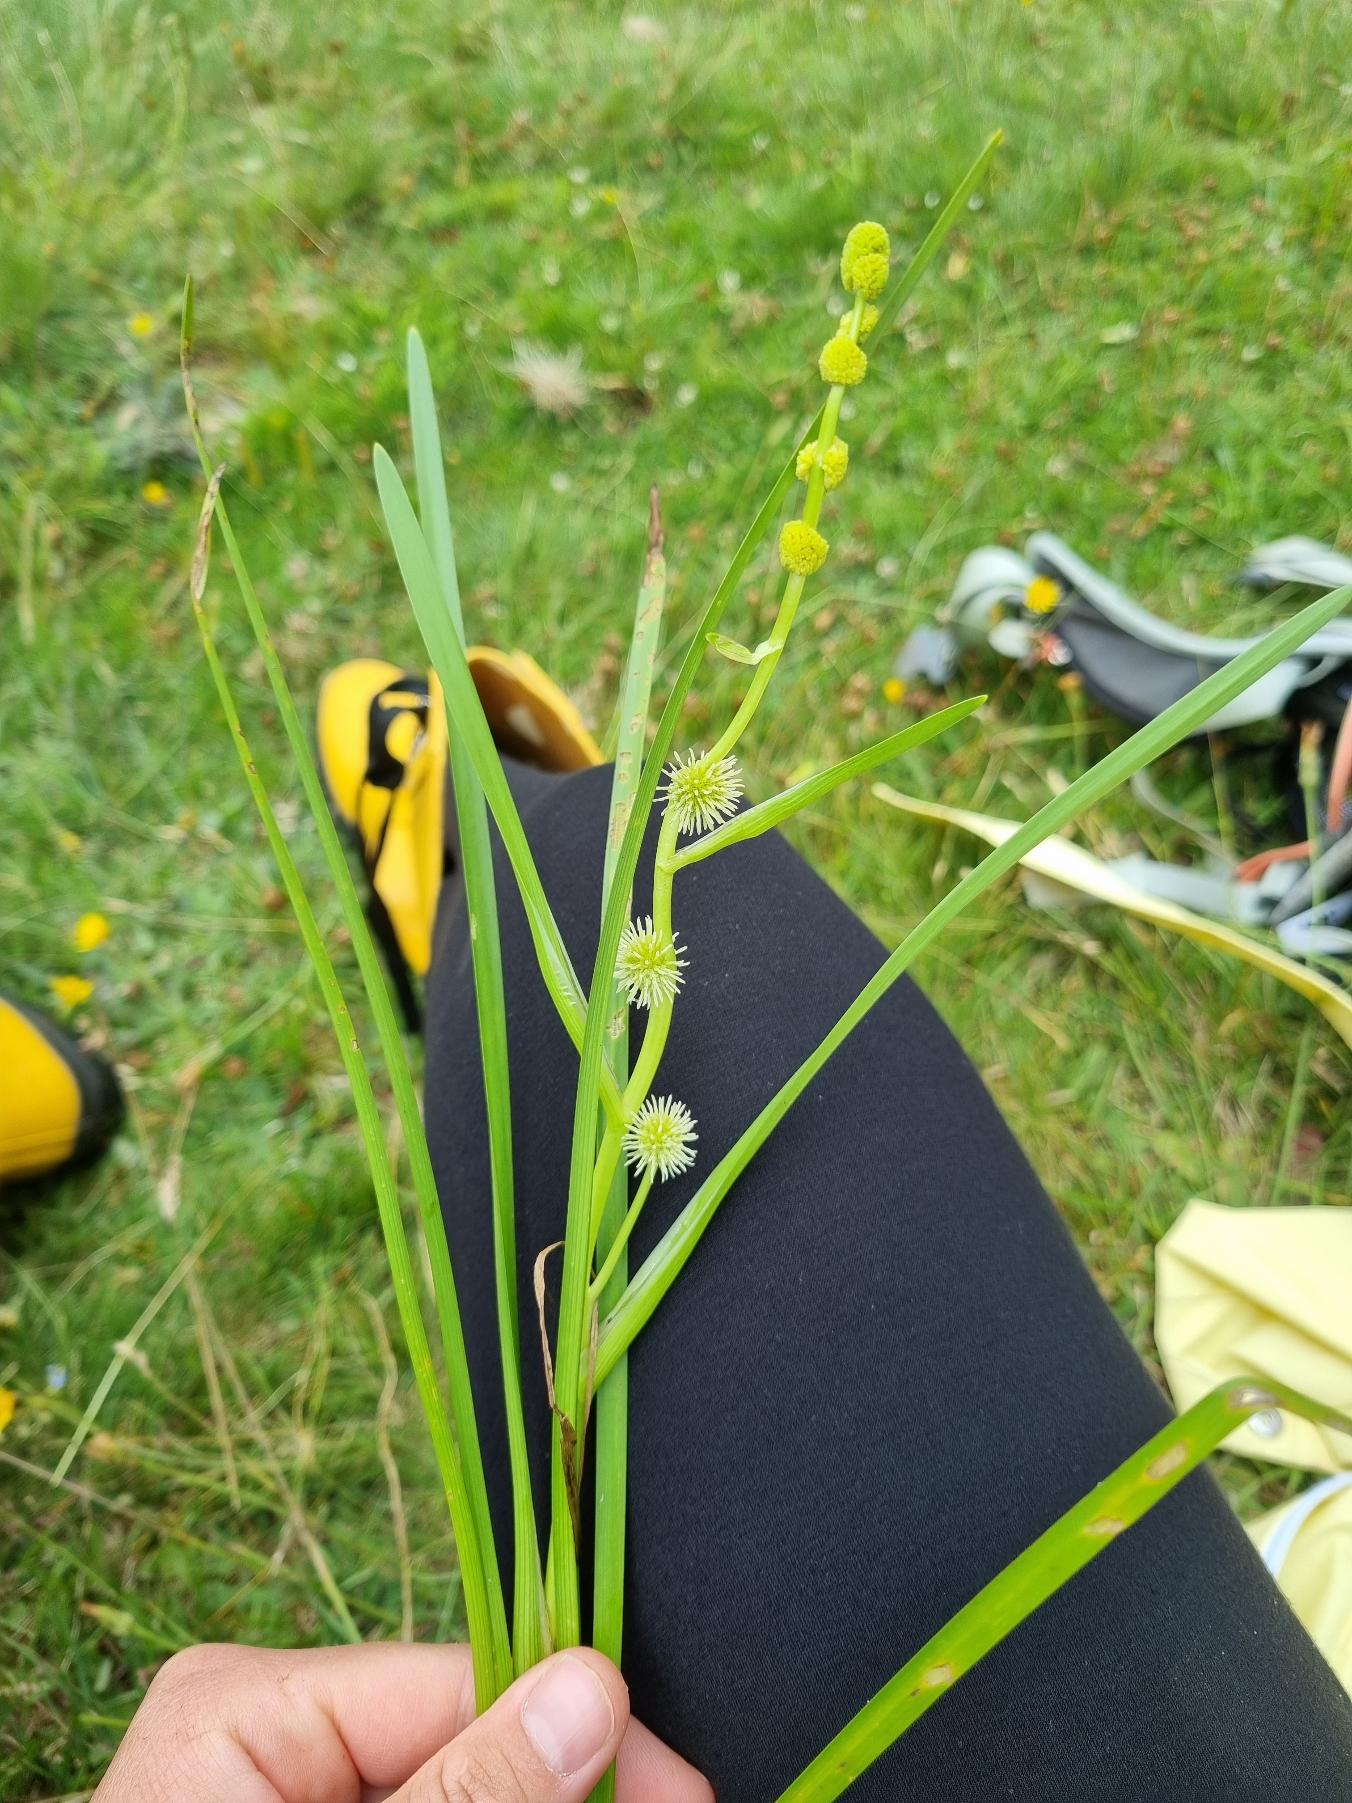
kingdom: Plantae
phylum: Tracheophyta
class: Liliopsida
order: Poales
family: Typhaceae
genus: Sparganium
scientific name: Sparganium emersum
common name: Enkelt pindsvineknop
